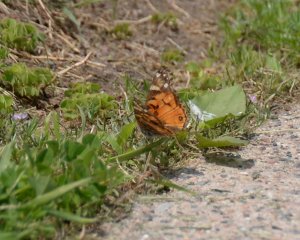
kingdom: Animalia
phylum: Arthropoda
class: Insecta
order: Lepidoptera
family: Nymphalidae
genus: Vanessa
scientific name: Vanessa virginiensis
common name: American Lady
